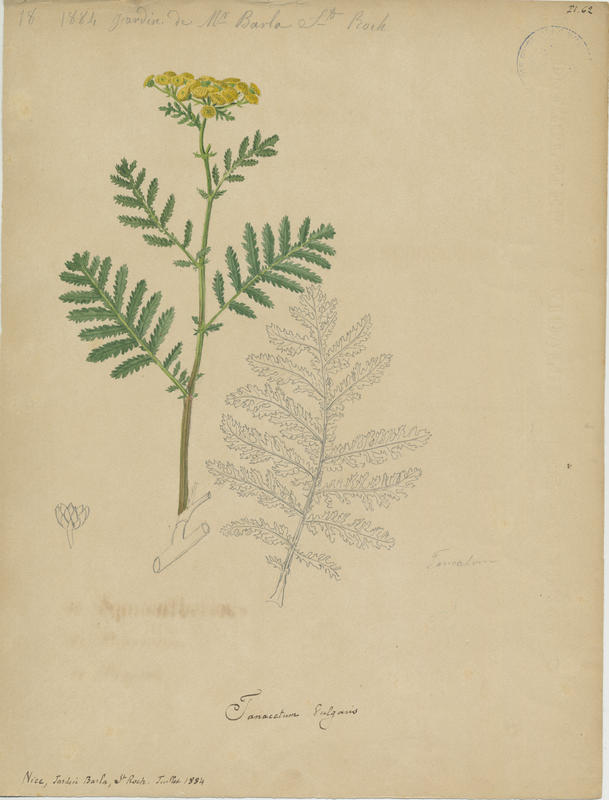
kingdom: Plantae
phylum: Tracheophyta
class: Magnoliopsida
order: Asterales
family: Asteraceae
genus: Tanacetum
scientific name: Tanacetum vulgare
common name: Common tansy
